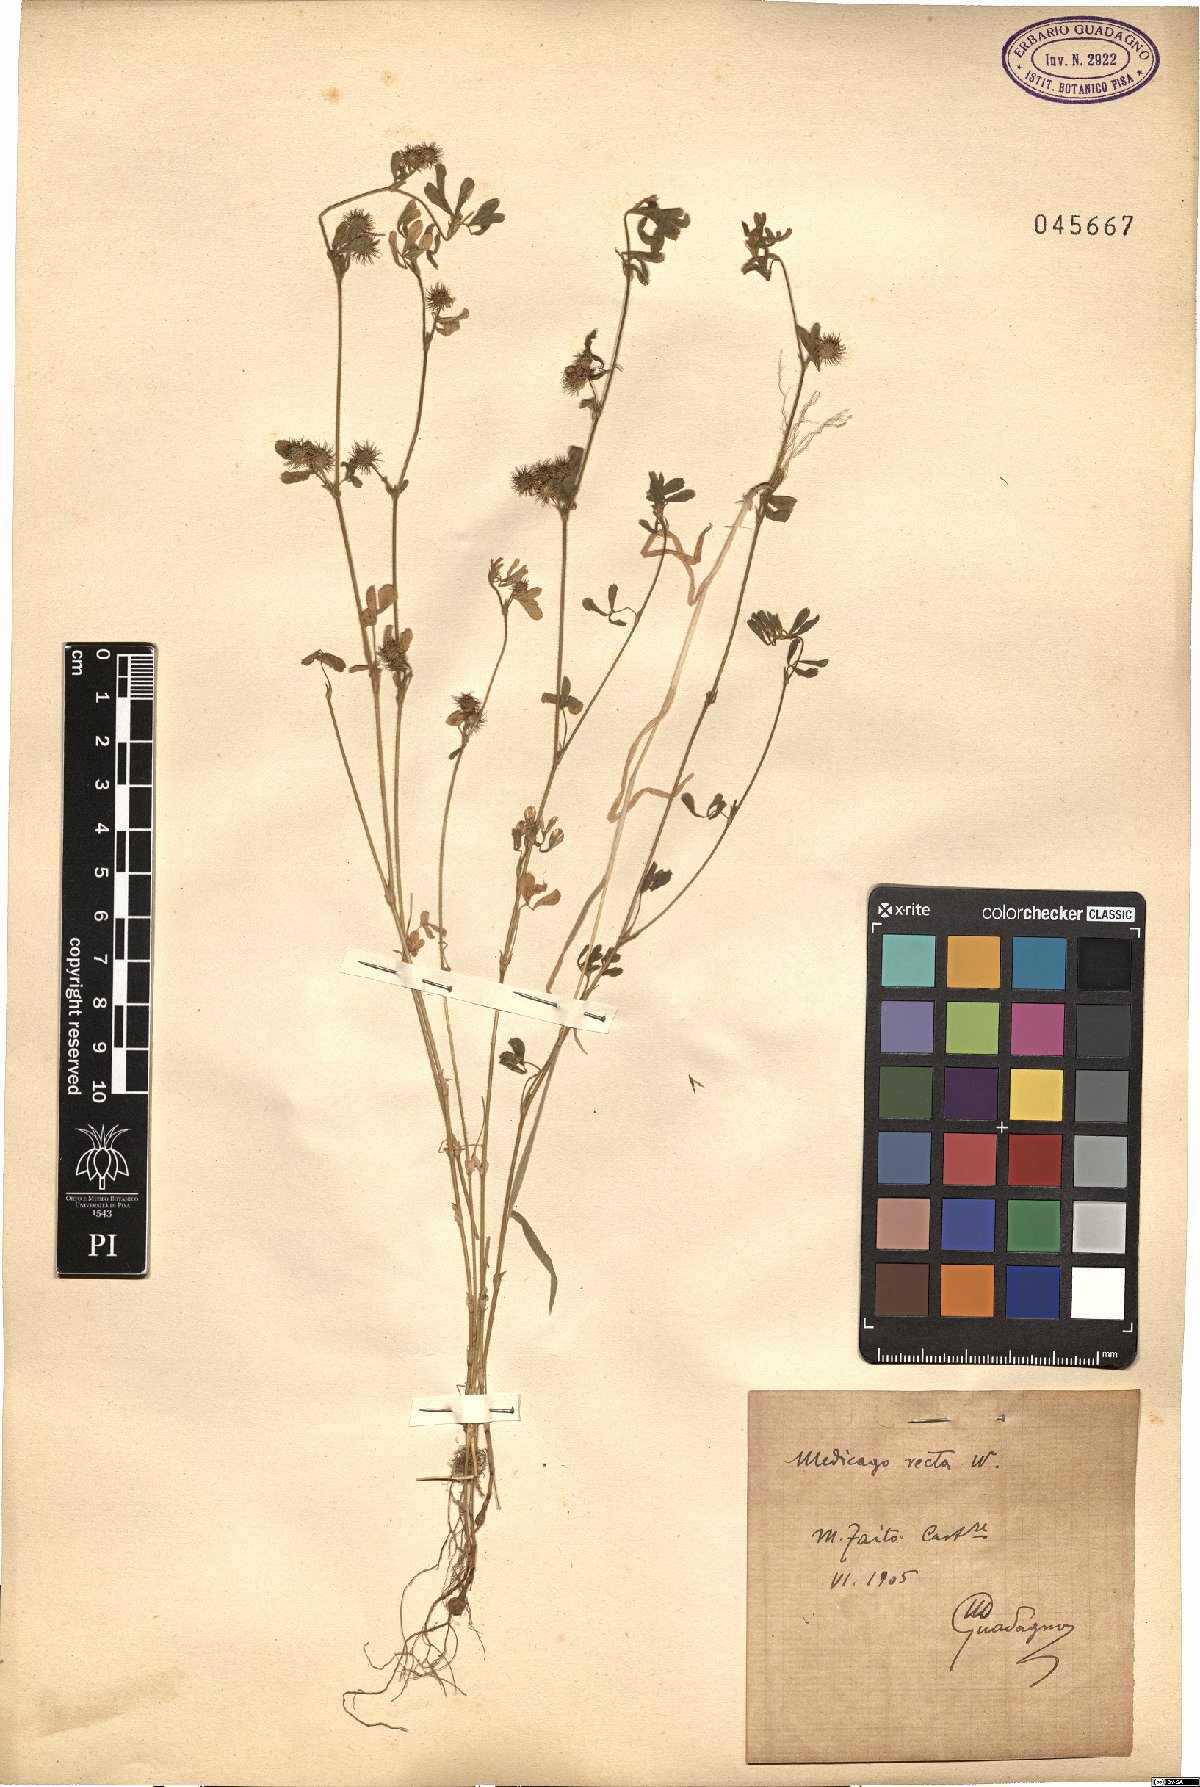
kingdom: Plantae
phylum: Tracheophyta
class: Magnoliopsida
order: Fabales
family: Fabaceae
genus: Medicago
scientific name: Medicago minima
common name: Little bur-clover
